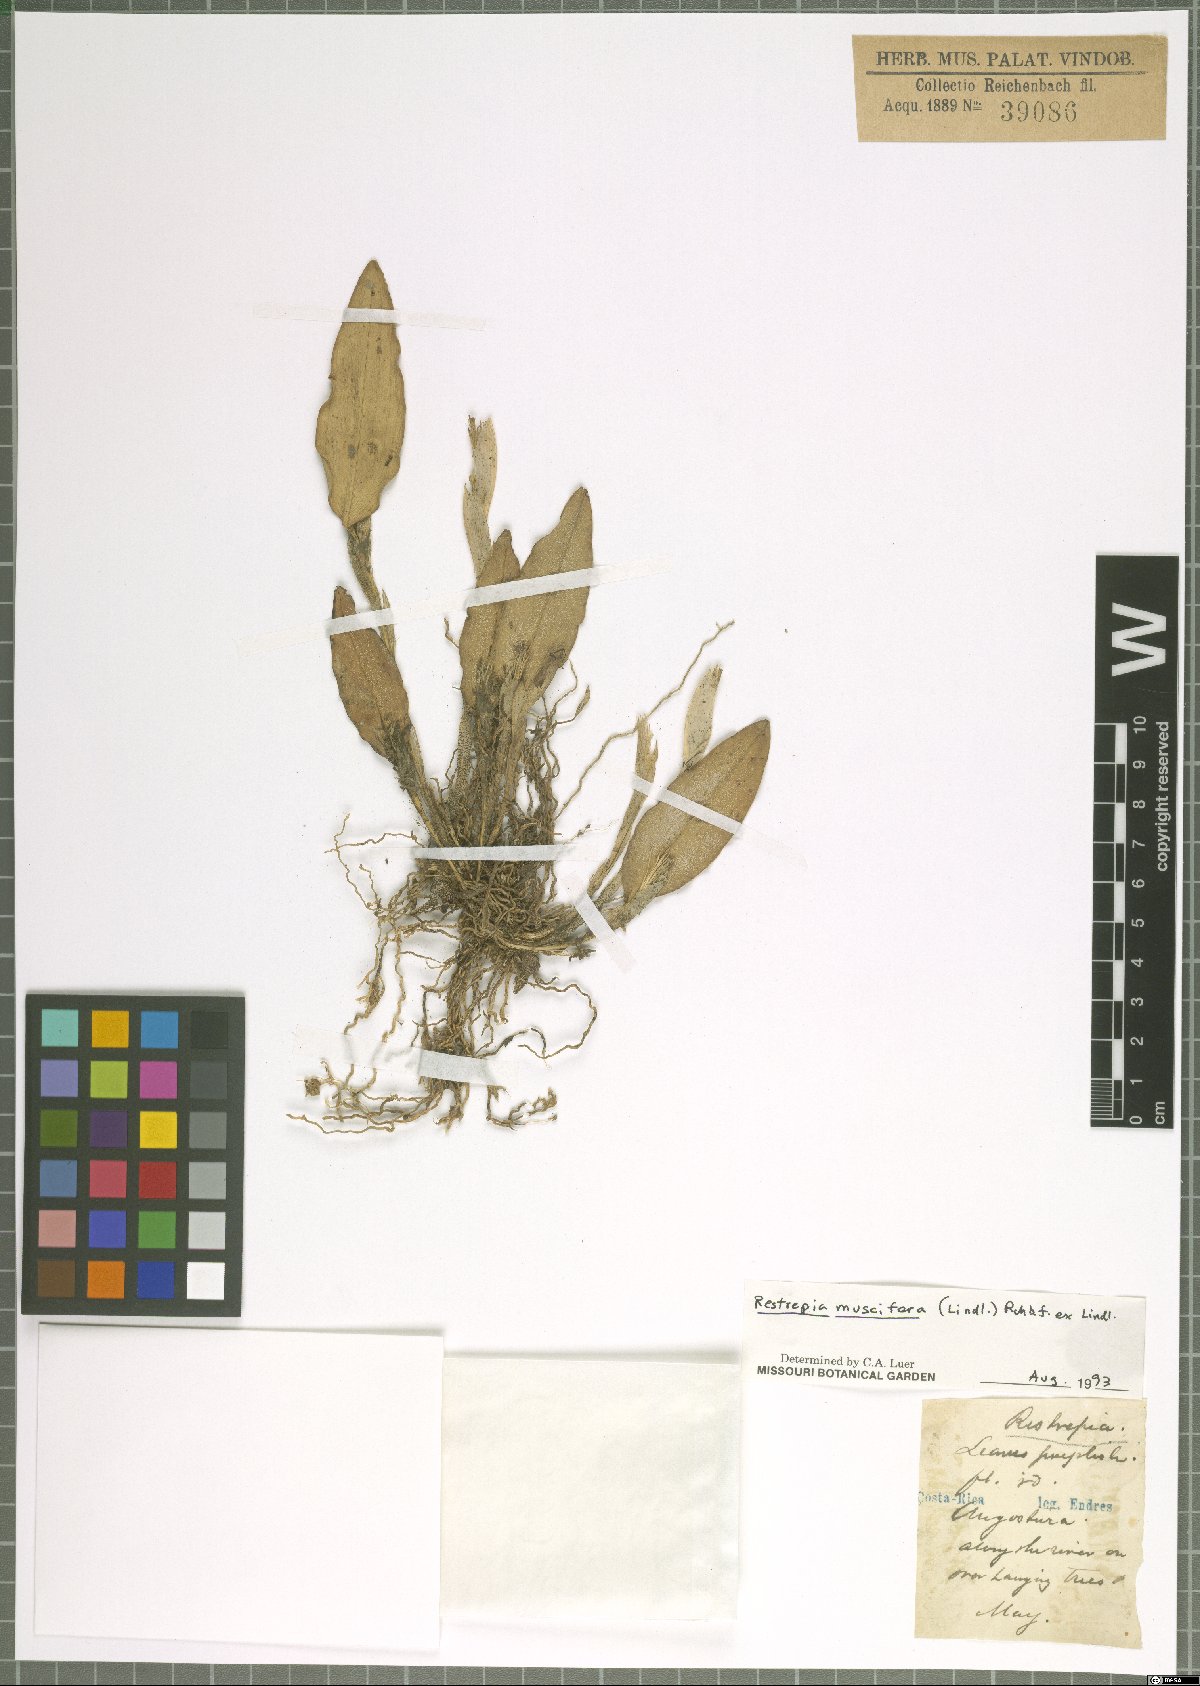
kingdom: Plantae
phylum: Tracheophyta
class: Liliopsida
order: Asparagales
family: Orchidaceae
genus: Restrepia
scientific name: Restrepia muscifera
